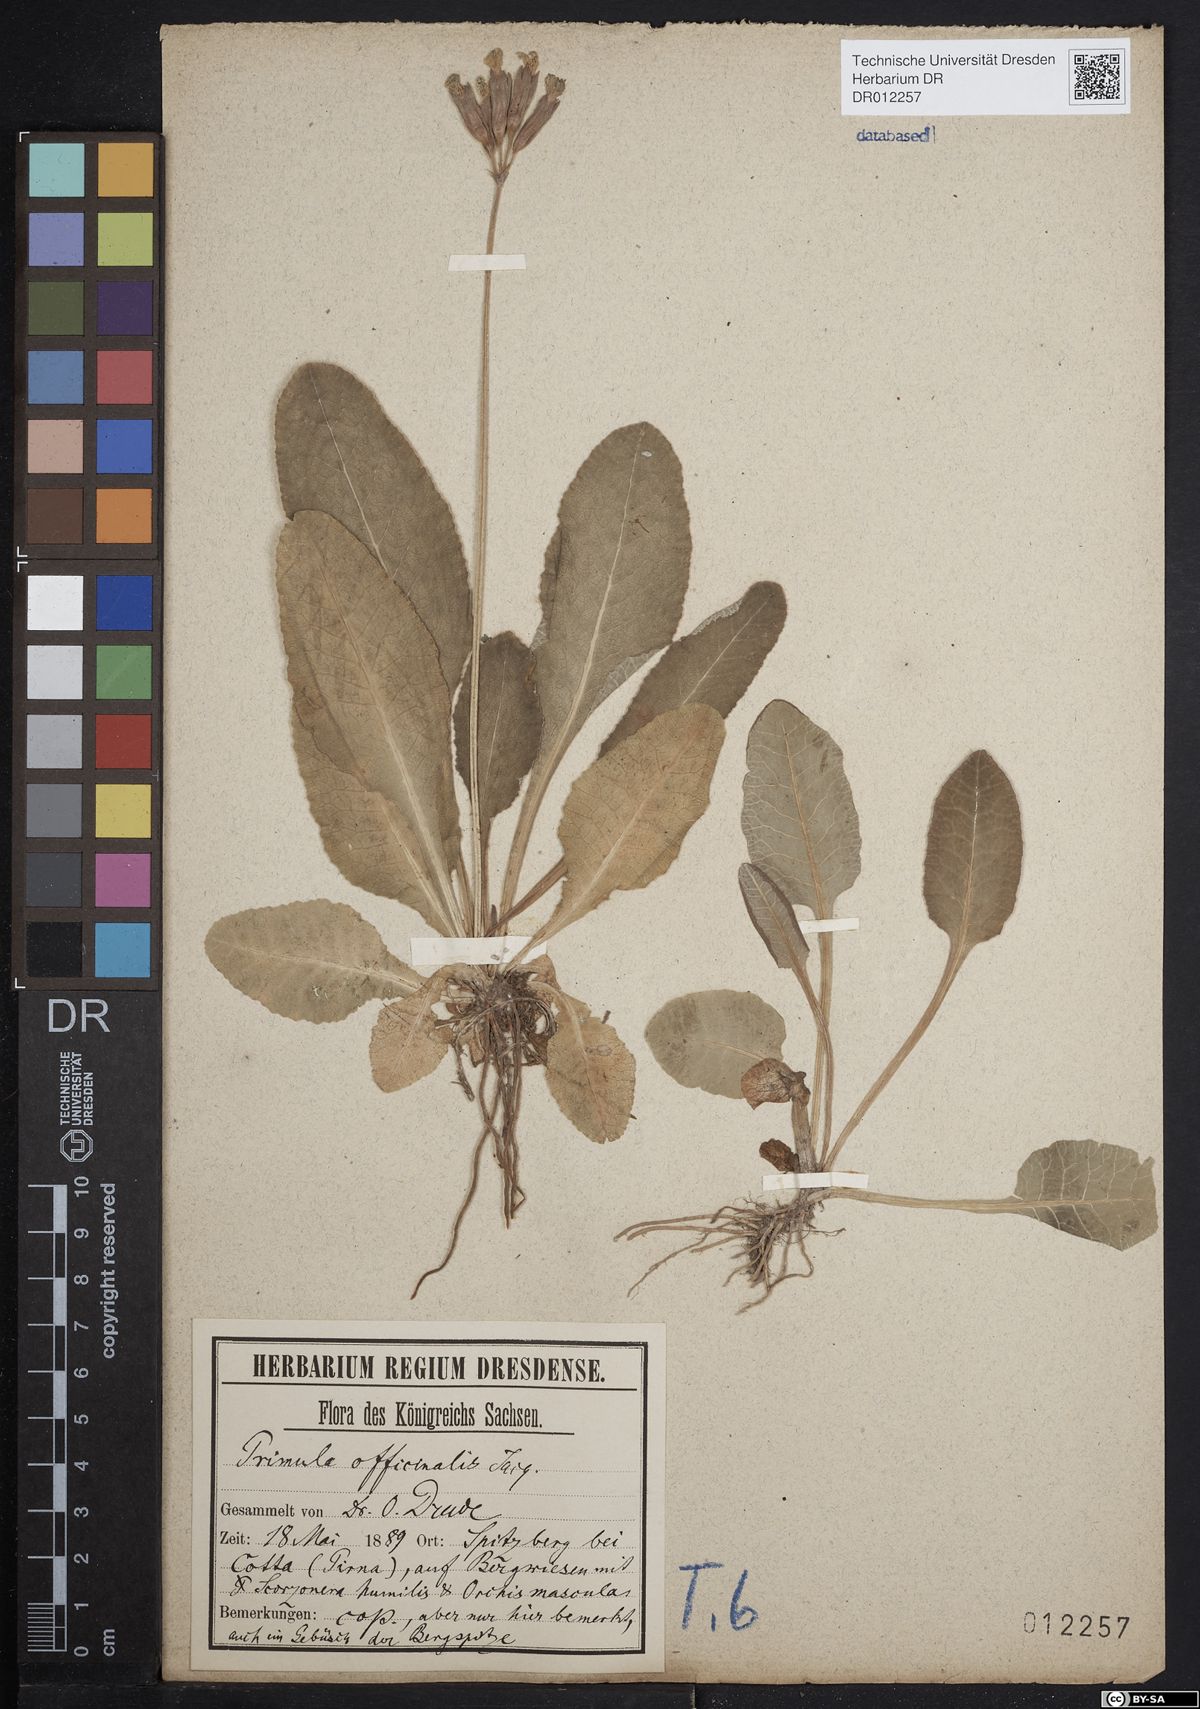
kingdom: Plantae
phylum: Tracheophyta
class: Magnoliopsida
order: Ericales
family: Primulaceae
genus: Primula
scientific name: Primula veris
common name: Cowslip
